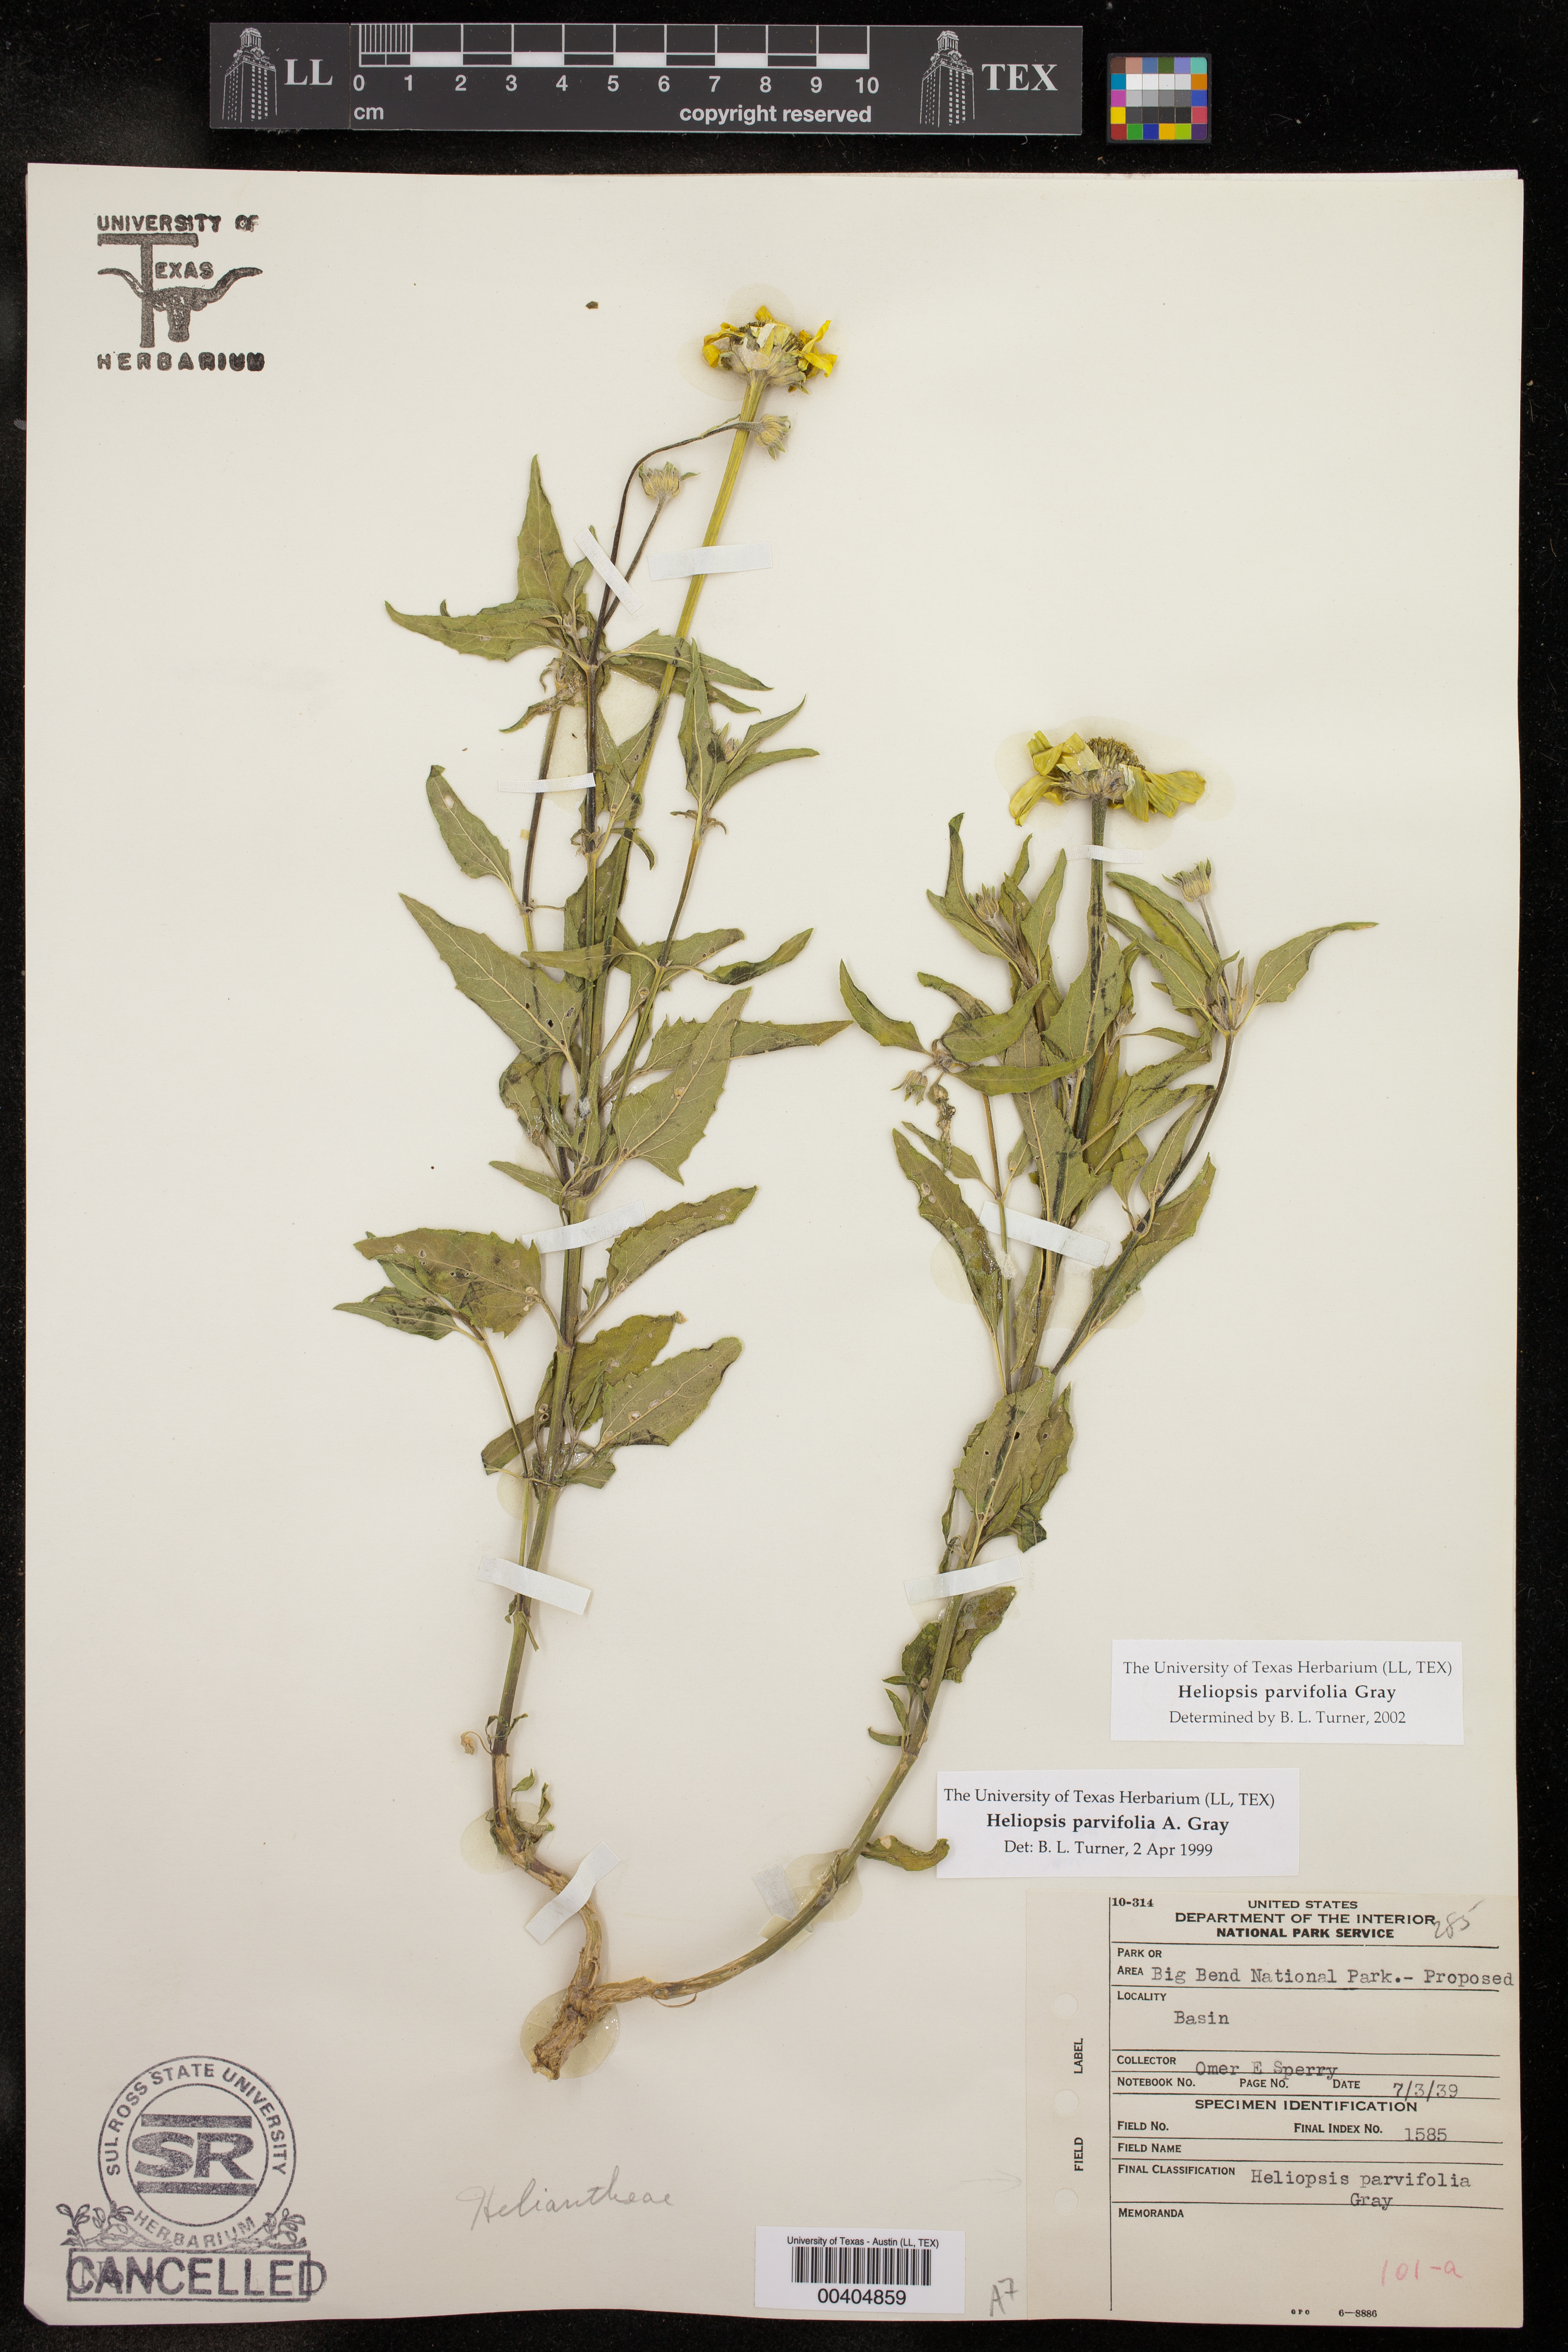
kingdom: Plantae
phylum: Tracheophyta
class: Magnoliopsida
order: Asterales
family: Asteraceae
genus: Heliopsis
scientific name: Heliopsis parvifolia
